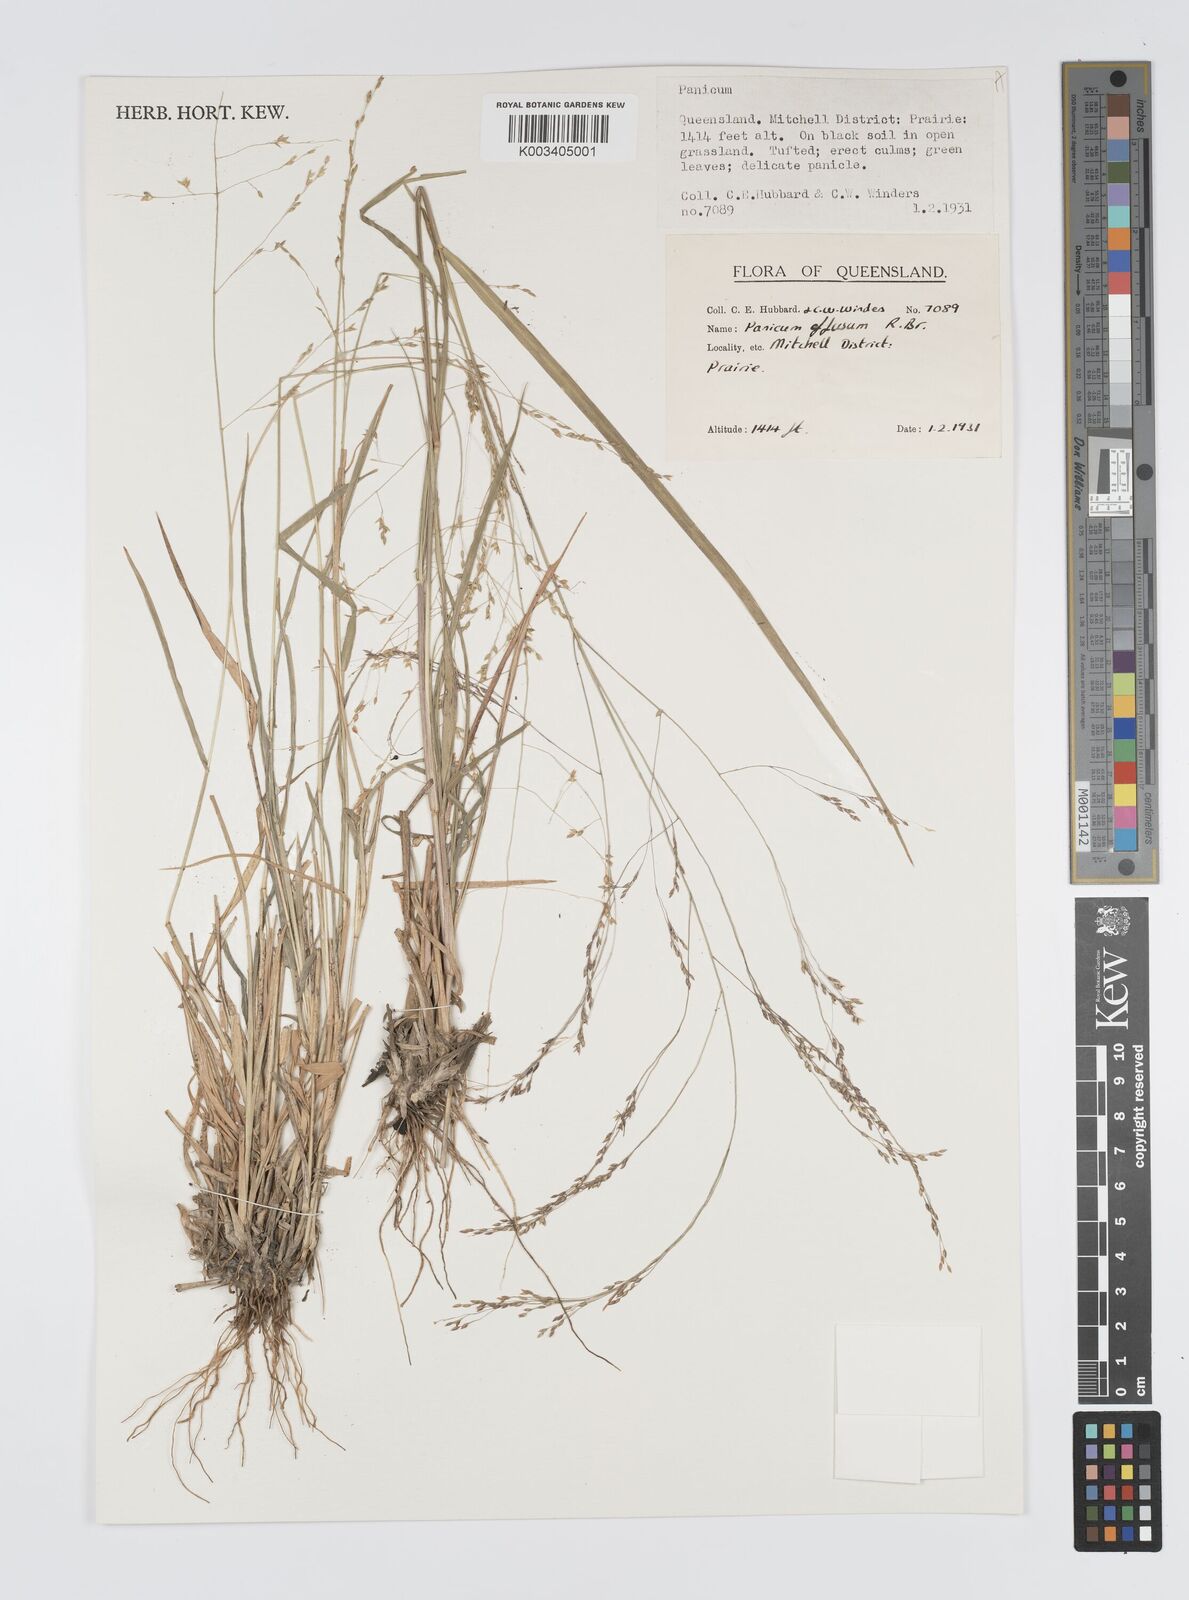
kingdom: Plantae
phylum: Tracheophyta
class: Liliopsida
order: Poales
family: Poaceae
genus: Panicum
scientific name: Panicum effusum
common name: Hairy panic grass
